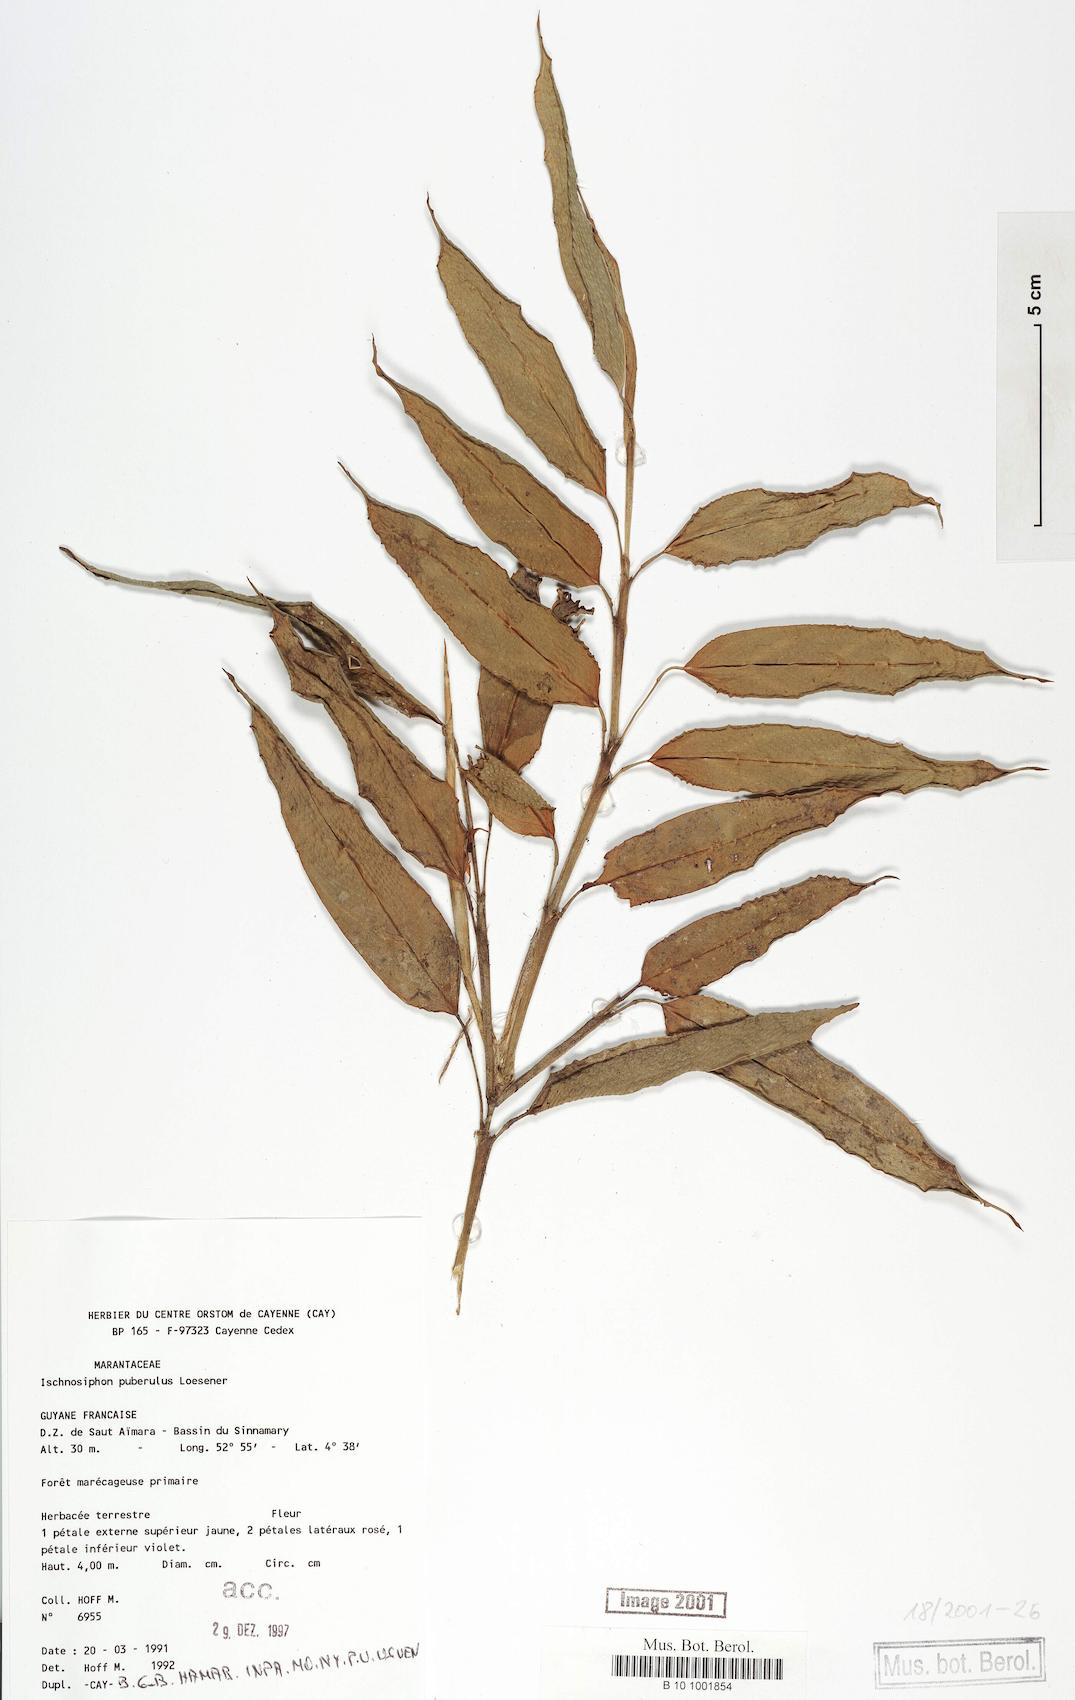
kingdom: Plantae
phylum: Tracheophyta
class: Liliopsida
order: Zingiberales
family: Marantaceae
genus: Ischnosiphon
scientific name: Ischnosiphon puberulus
